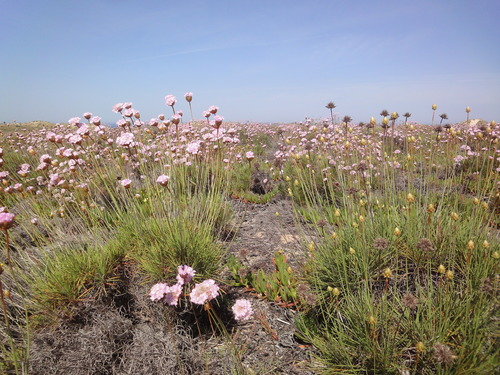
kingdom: Plantae
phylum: Tracheophyta
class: Magnoliopsida
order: Caryophyllales
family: Plumbaginaceae
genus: Armeria
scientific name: Armeria pungens
